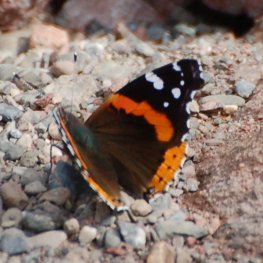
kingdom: Animalia
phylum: Arthropoda
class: Insecta
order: Lepidoptera
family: Nymphalidae
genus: Vanessa
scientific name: Vanessa atalanta
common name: Red Admiral
